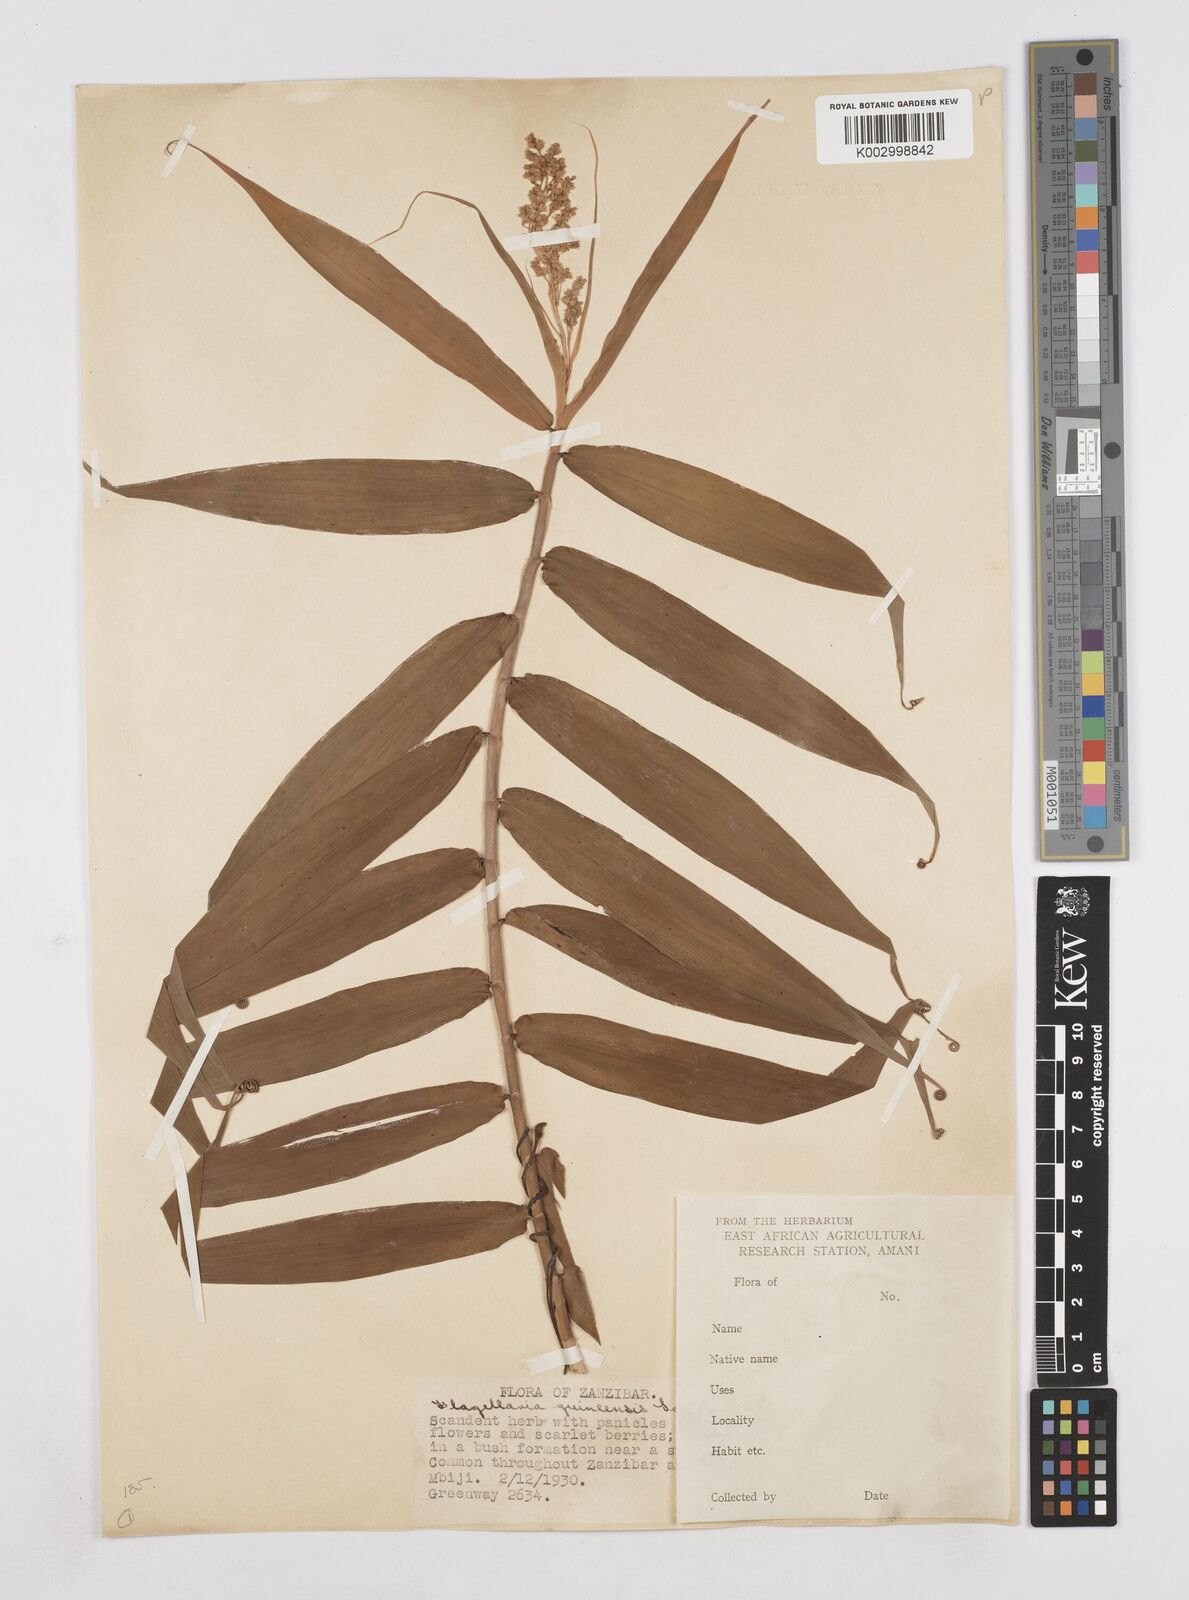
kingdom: Plantae
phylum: Tracheophyta
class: Liliopsida
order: Poales
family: Flagellariaceae
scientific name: Flagellariaceae
